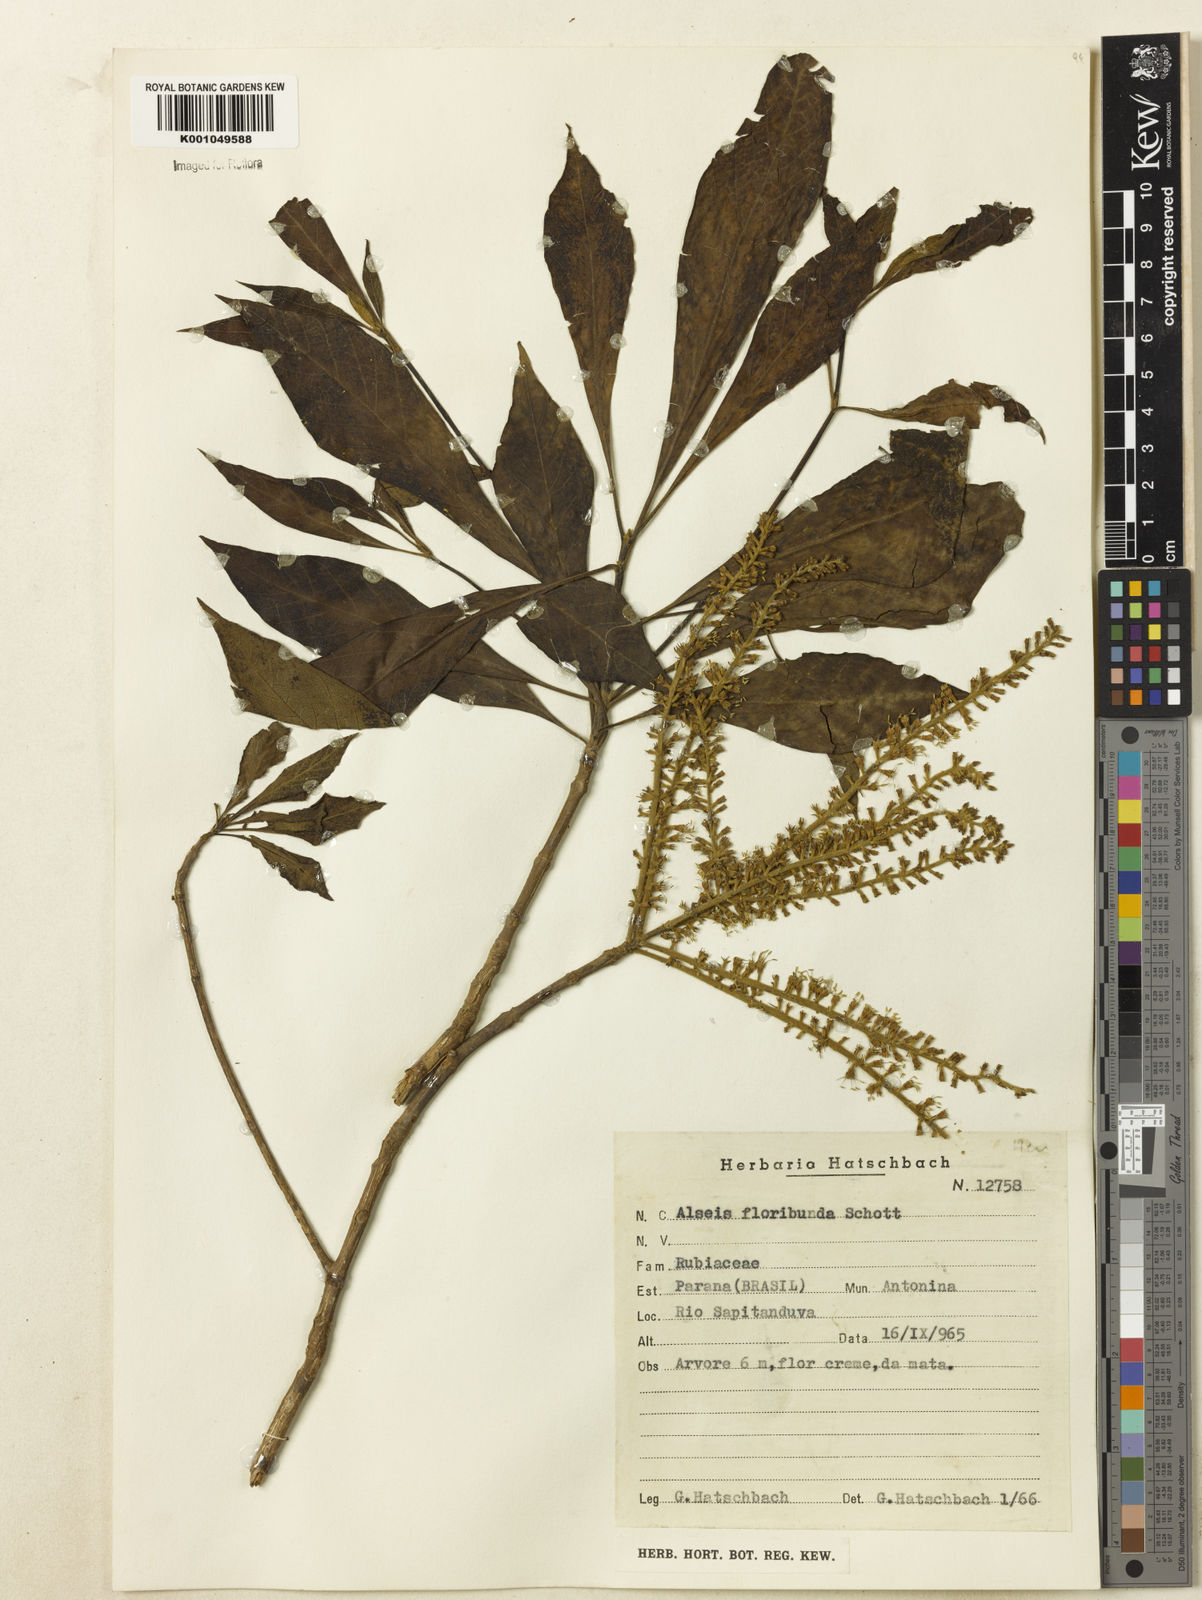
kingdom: Plantae
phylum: Tracheophyta
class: Magnoliopsida
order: Gentianales
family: Rubiaceae
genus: Alseis
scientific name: Alseis floribunda
